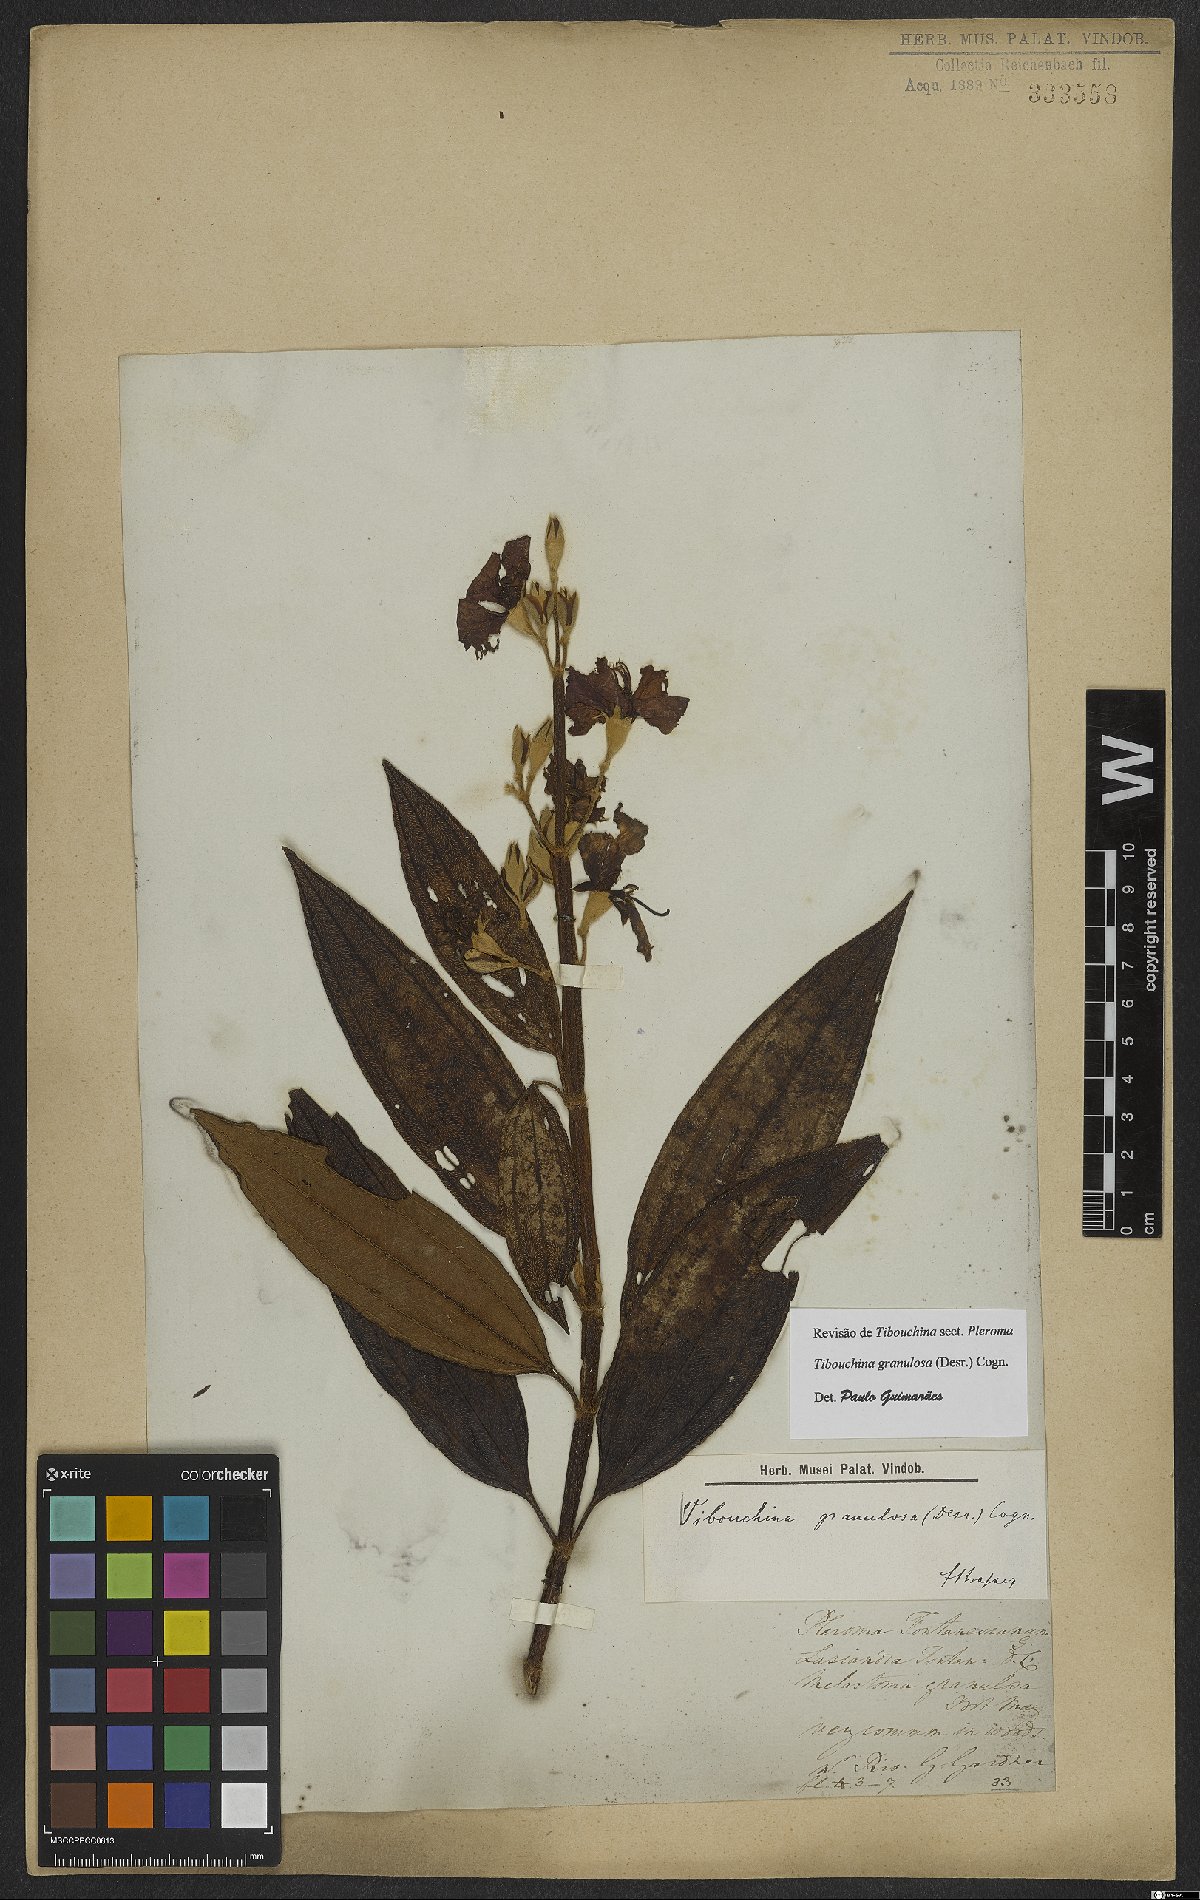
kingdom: Plantae
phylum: Tracheophyta
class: Magnoliopsida
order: Myrtales
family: Melastomataceae
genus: Pleroma
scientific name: Pleroma granulosum
